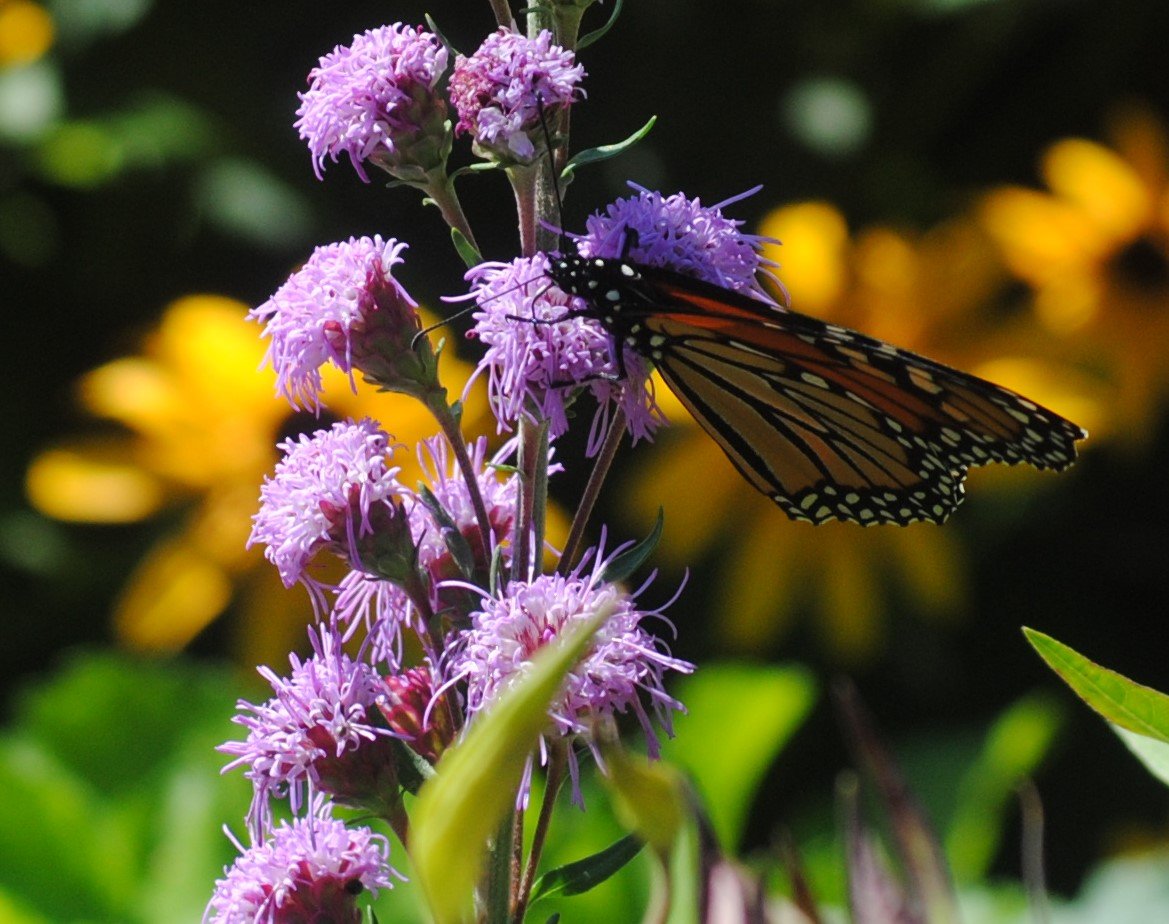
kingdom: Animalia
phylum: Arthropoda
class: Insecta
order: Lepidoptera
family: Nymphalidae
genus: Danaus
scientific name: Danaus plexippus
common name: Monarch
